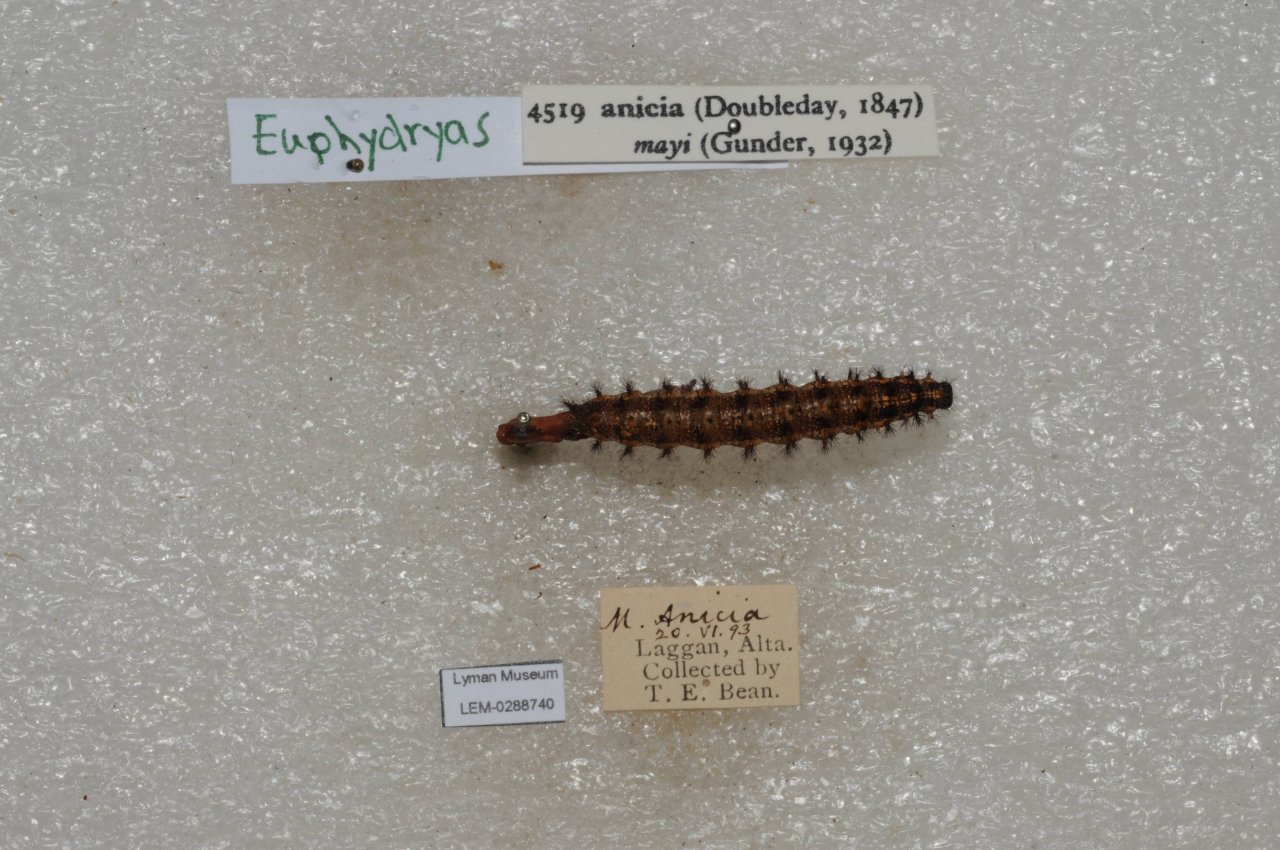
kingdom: Animalia
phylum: Arthropoda
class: Insecta
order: Lepidoptera
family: Nymphalidae
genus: Occidryas
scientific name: Occidryas anicia
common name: Anicia Checkerspot
